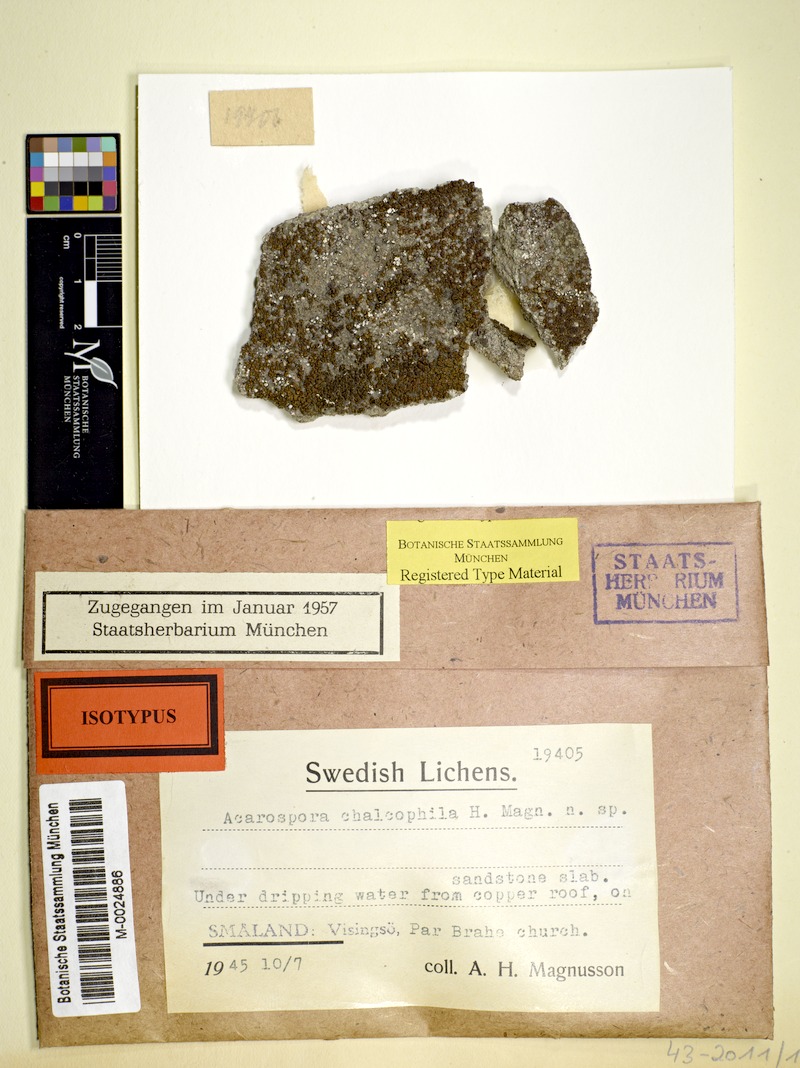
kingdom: Fungi
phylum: Ascomycota
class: Lecanoromycetes
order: Acarosporales
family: Acarosporaceae
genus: Polysporinopsis
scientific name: Polysporinopsis rugulosa
